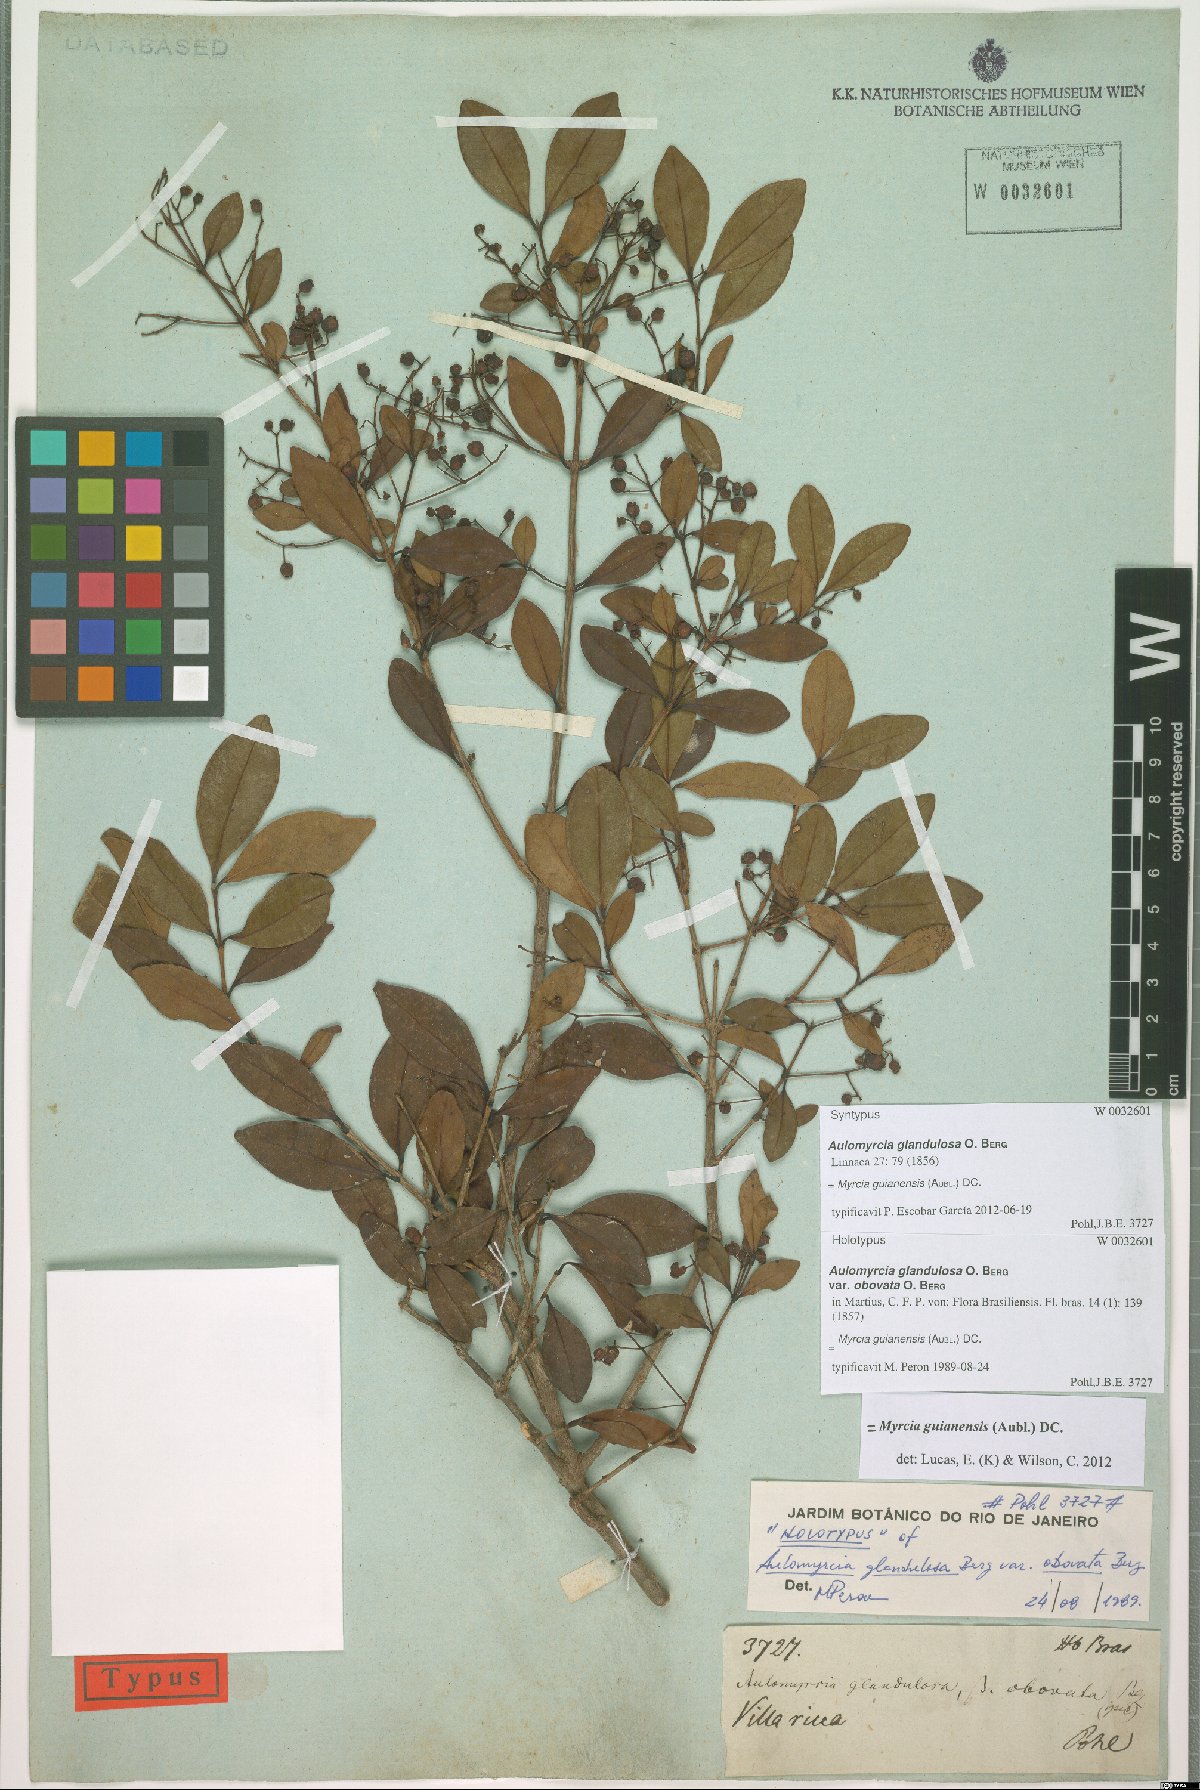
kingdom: Plantae
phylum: Tracheophyta
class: Magnoliopsida
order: Myrtales
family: Myrtaceae
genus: Myrcia
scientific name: Myrcia guianensis
